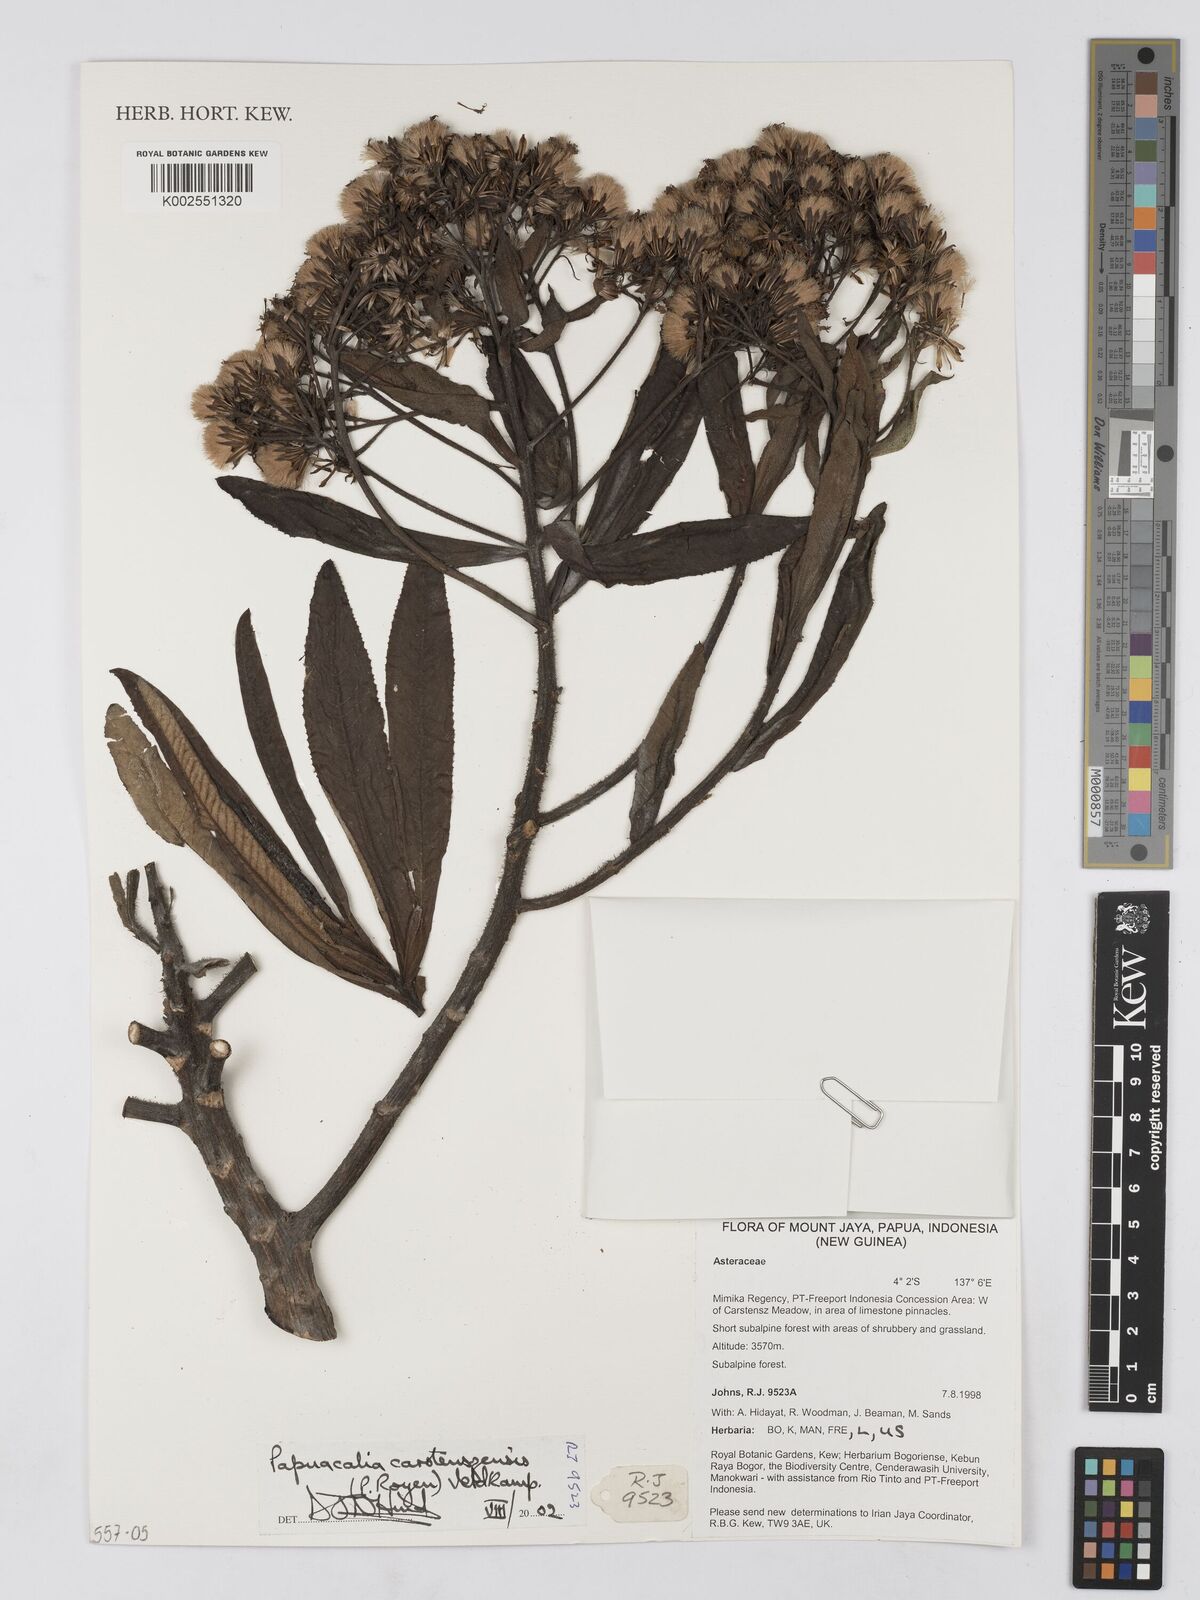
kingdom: Plantae
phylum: Tracheophyta
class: Magnoliopsida
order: Asterales
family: Asteraceae
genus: Papuacalia
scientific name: Papuacalia carstenszensis
